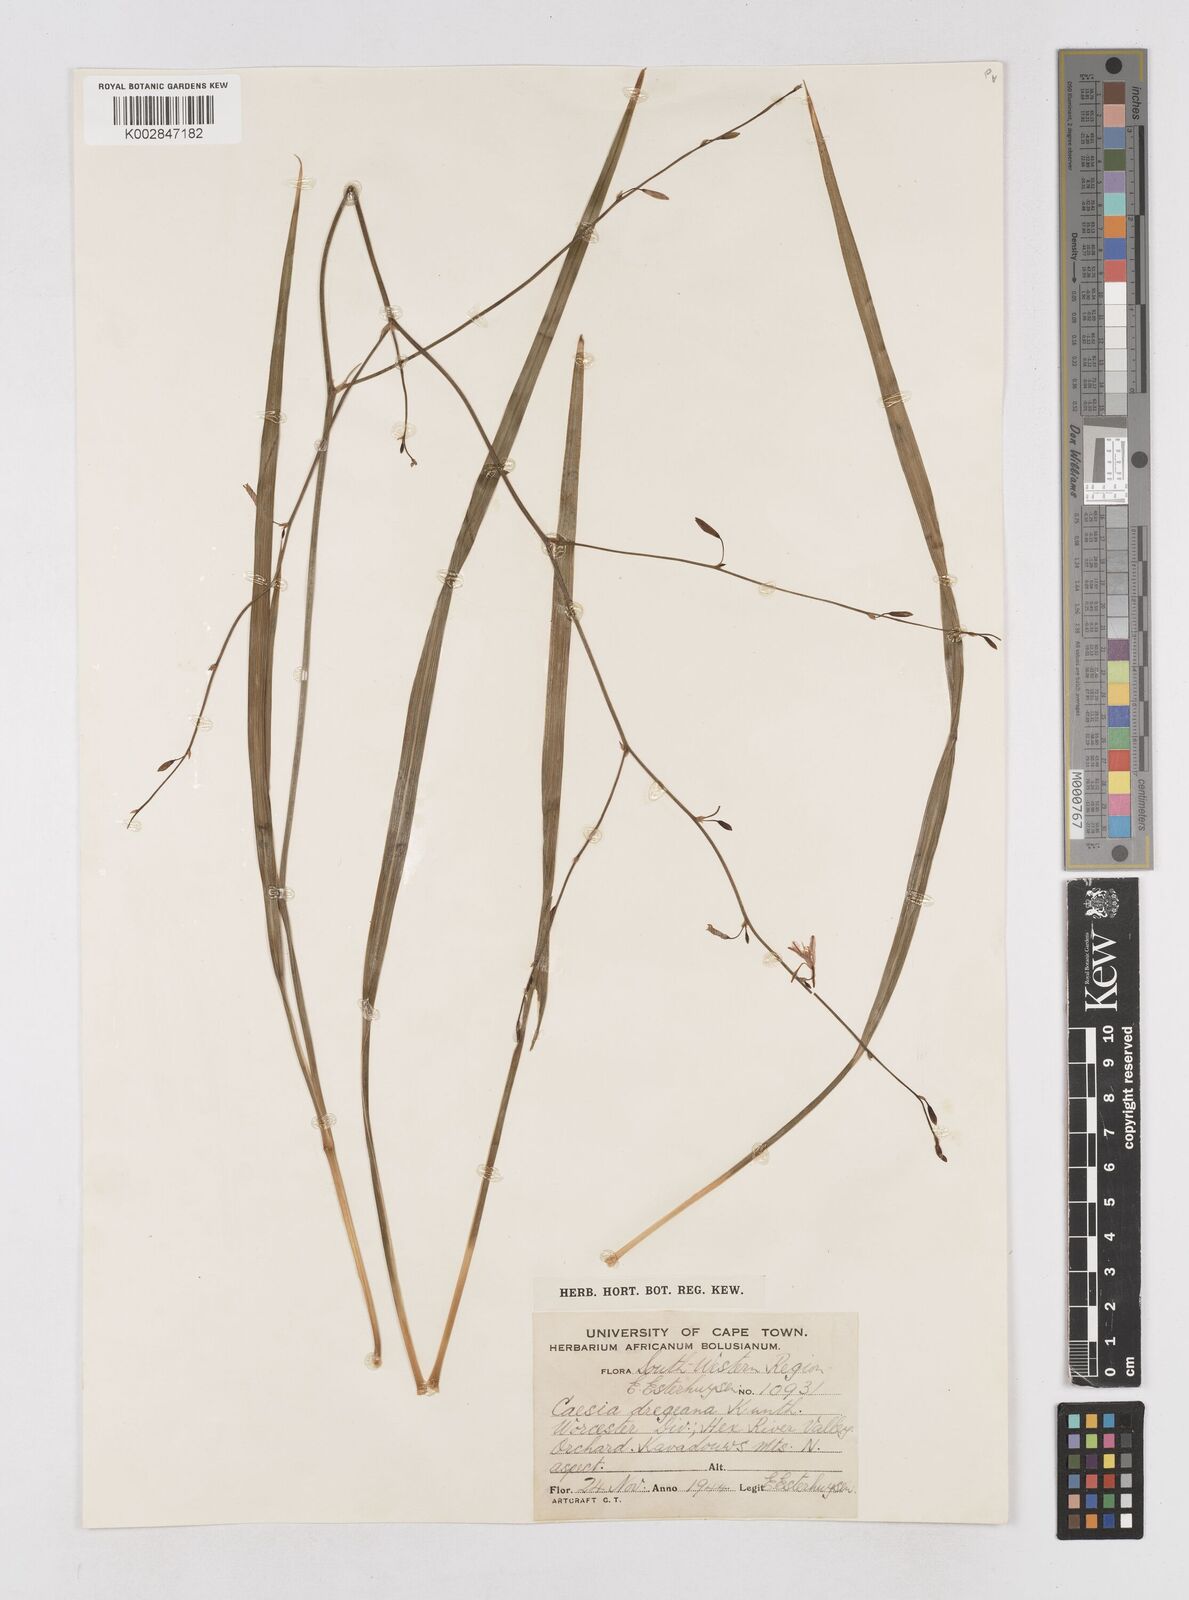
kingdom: Plantae
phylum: Tracheophyta
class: Liliopsida
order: Asparagales
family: Asphodelaceae
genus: Caesia
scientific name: Caesia contorta
